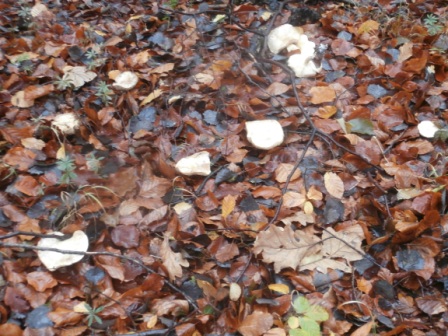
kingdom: Fungi
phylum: Basidiomycota
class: Agaricomycetes
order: Agaricales
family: Tricholomataceae
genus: Tricholoma
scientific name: Tricholoma lascivum
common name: stinkende ridderhat
